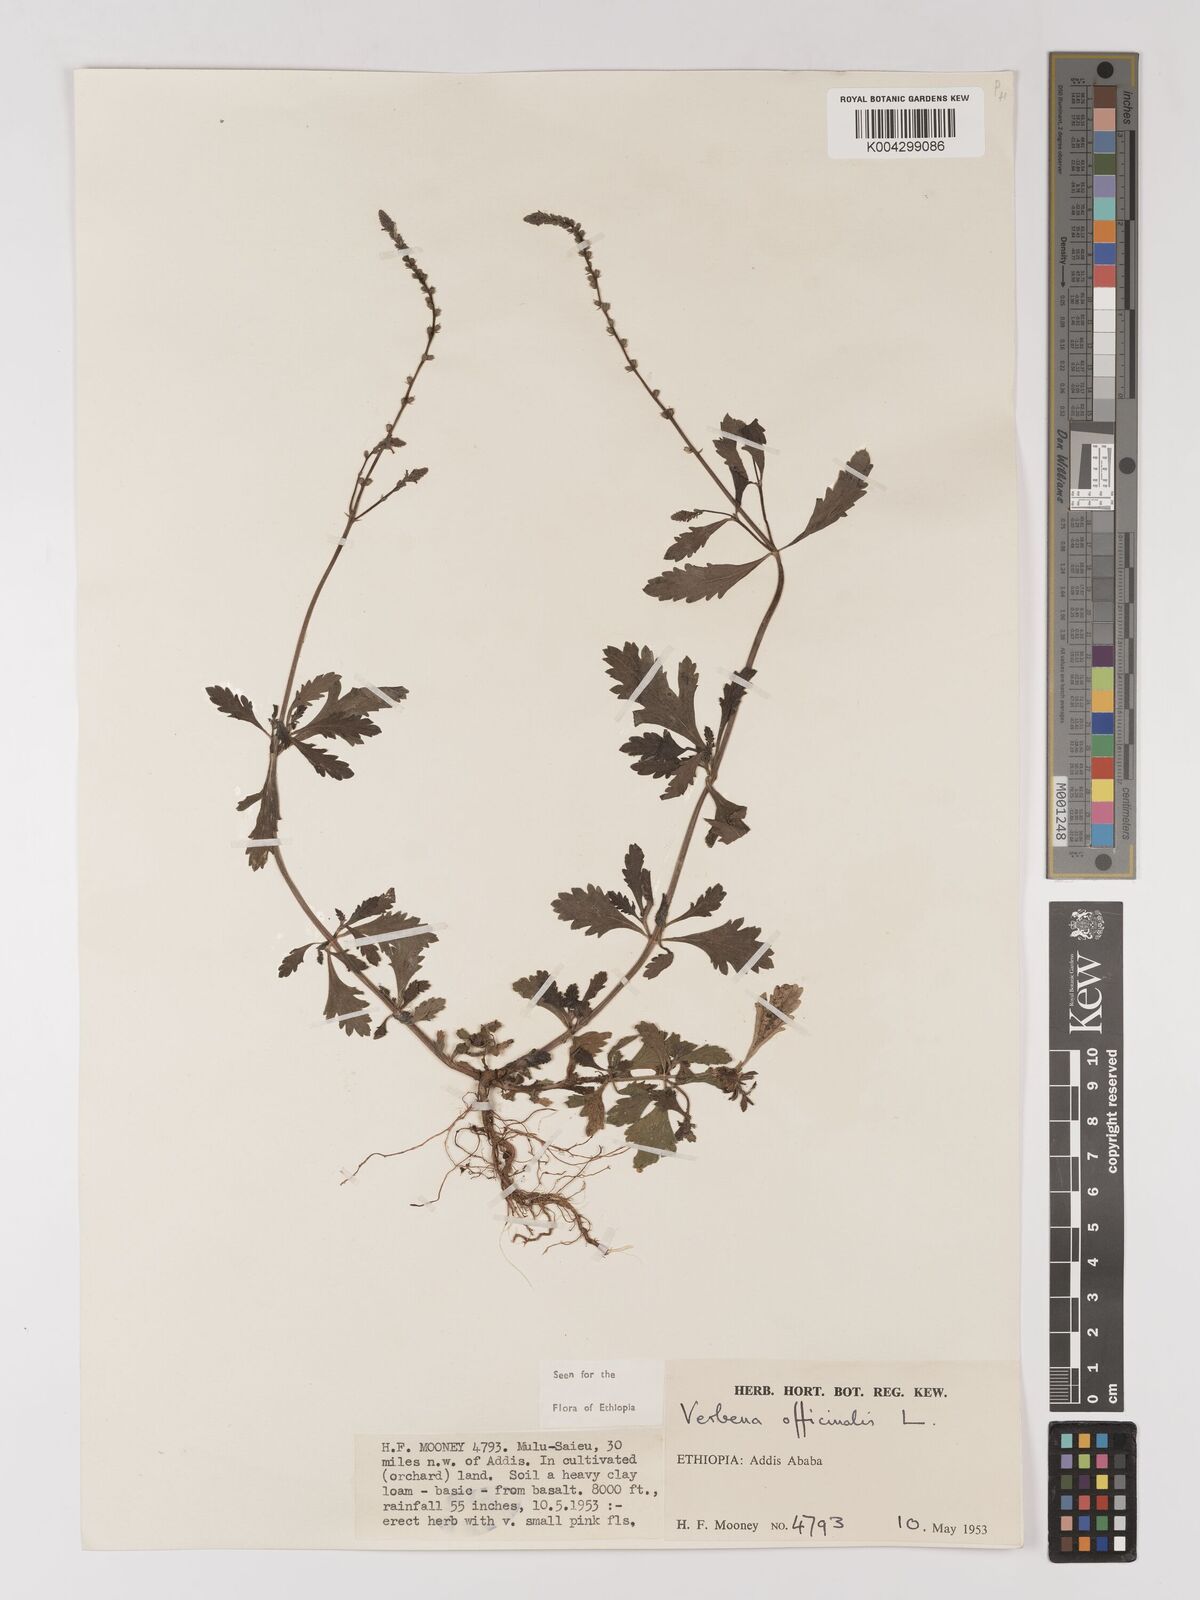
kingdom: Plantae
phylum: Tracheophyta
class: Magnoliopsida
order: Lamiales
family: Verbenaceae
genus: Verbena
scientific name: Verbena officinalis
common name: Vervain
